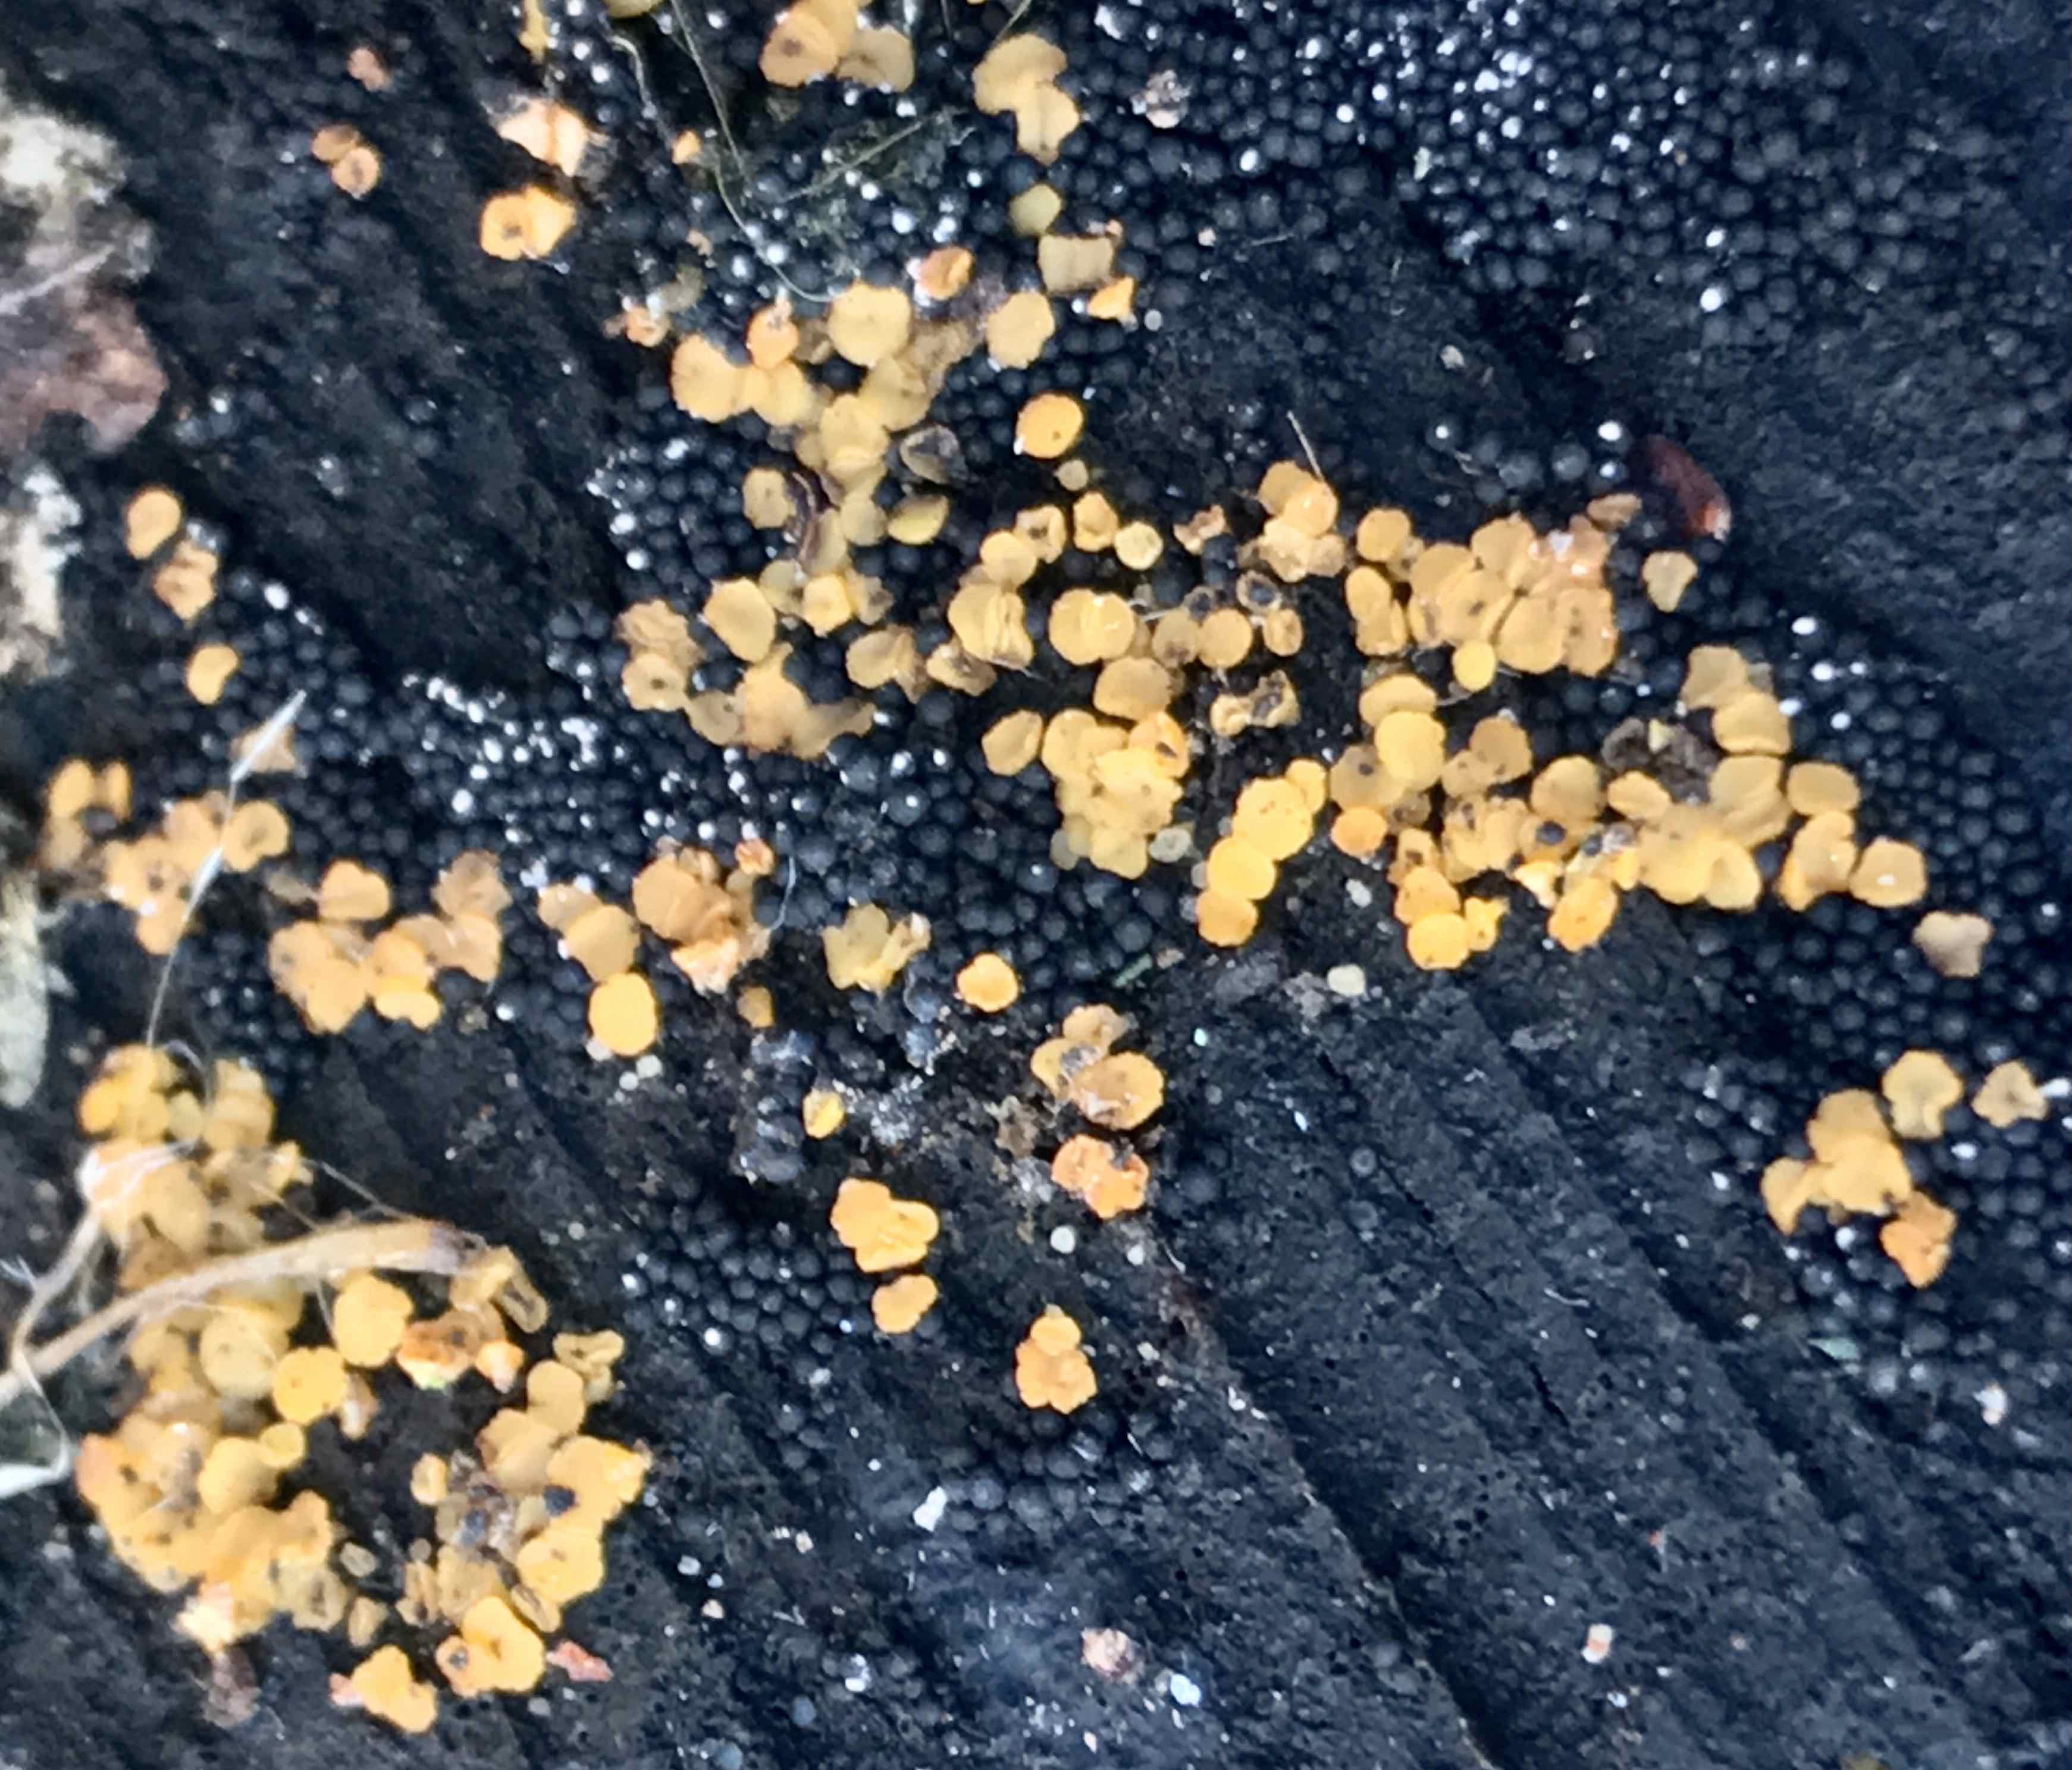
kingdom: Fungi
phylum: Ascomycota
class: Leotiomycetes
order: Helotiales
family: Pezizellaceae
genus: Calycina
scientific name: Calycina
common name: gulskive
